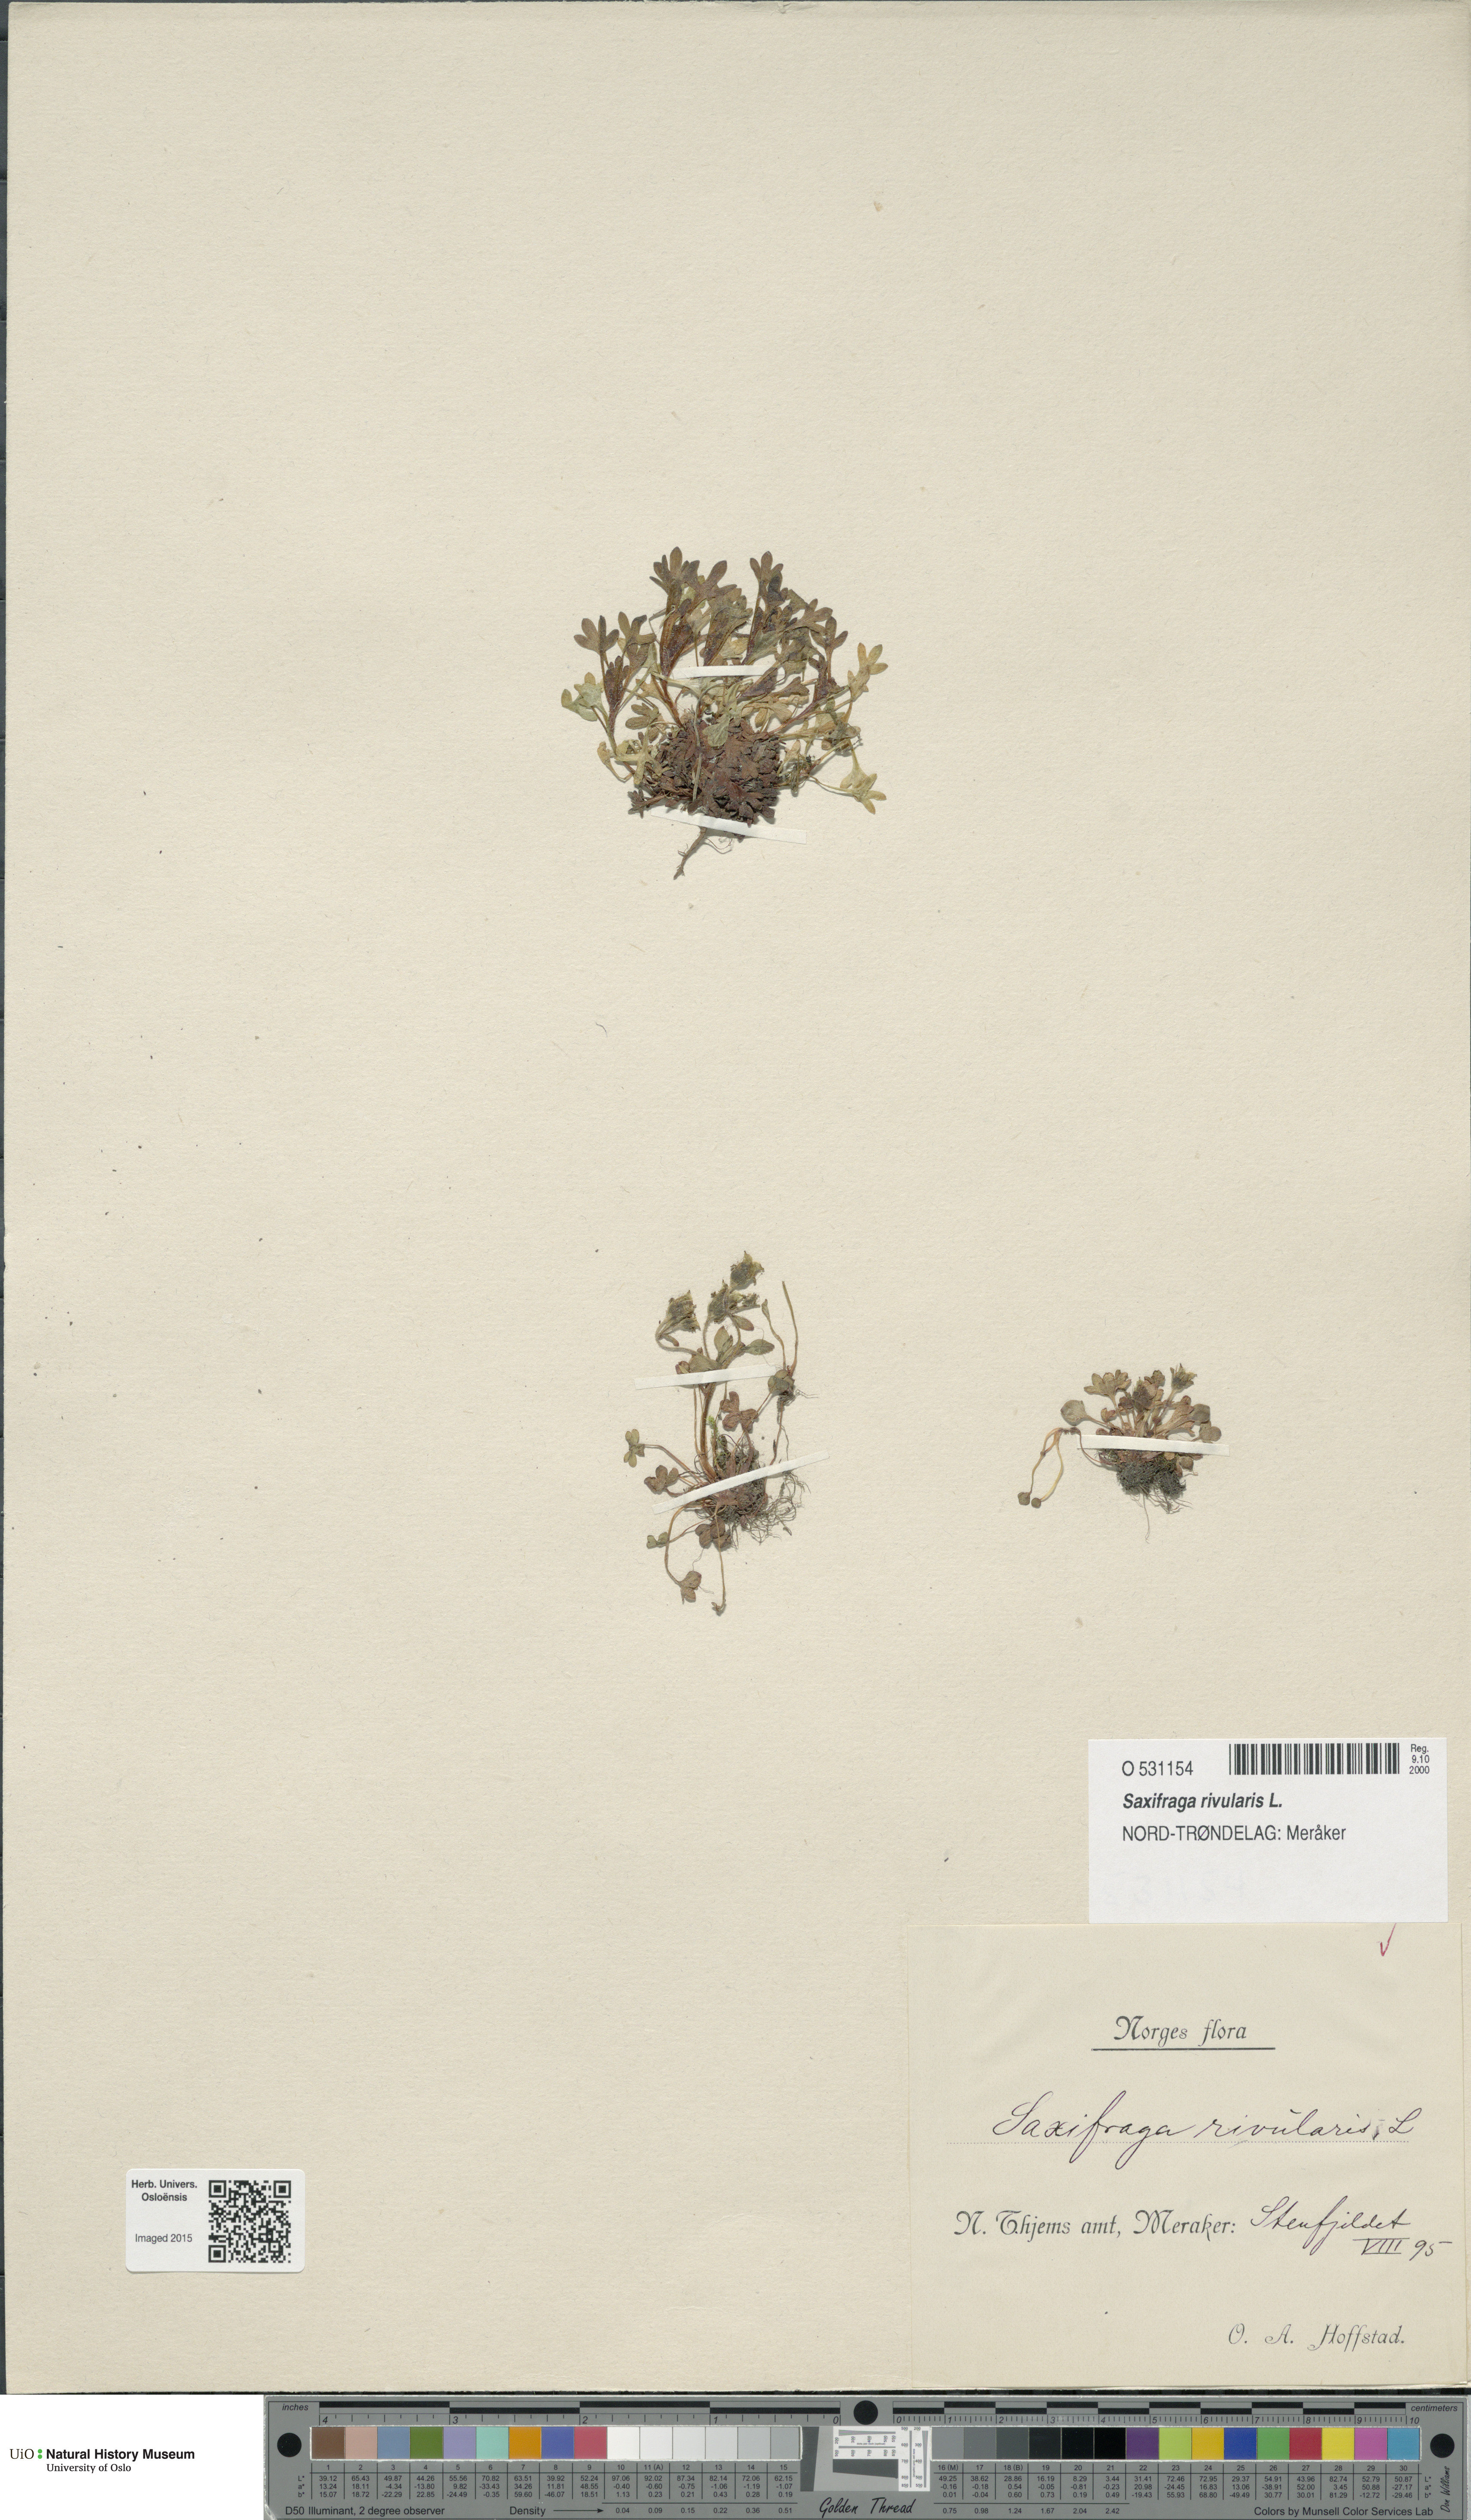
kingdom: Plantae
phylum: Tracheophyta
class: Magnoliopsida
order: Saxifragales
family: Saxifragaceae
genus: Saxifraga
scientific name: Saxifraga rivularis
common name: Highland saxifrage
